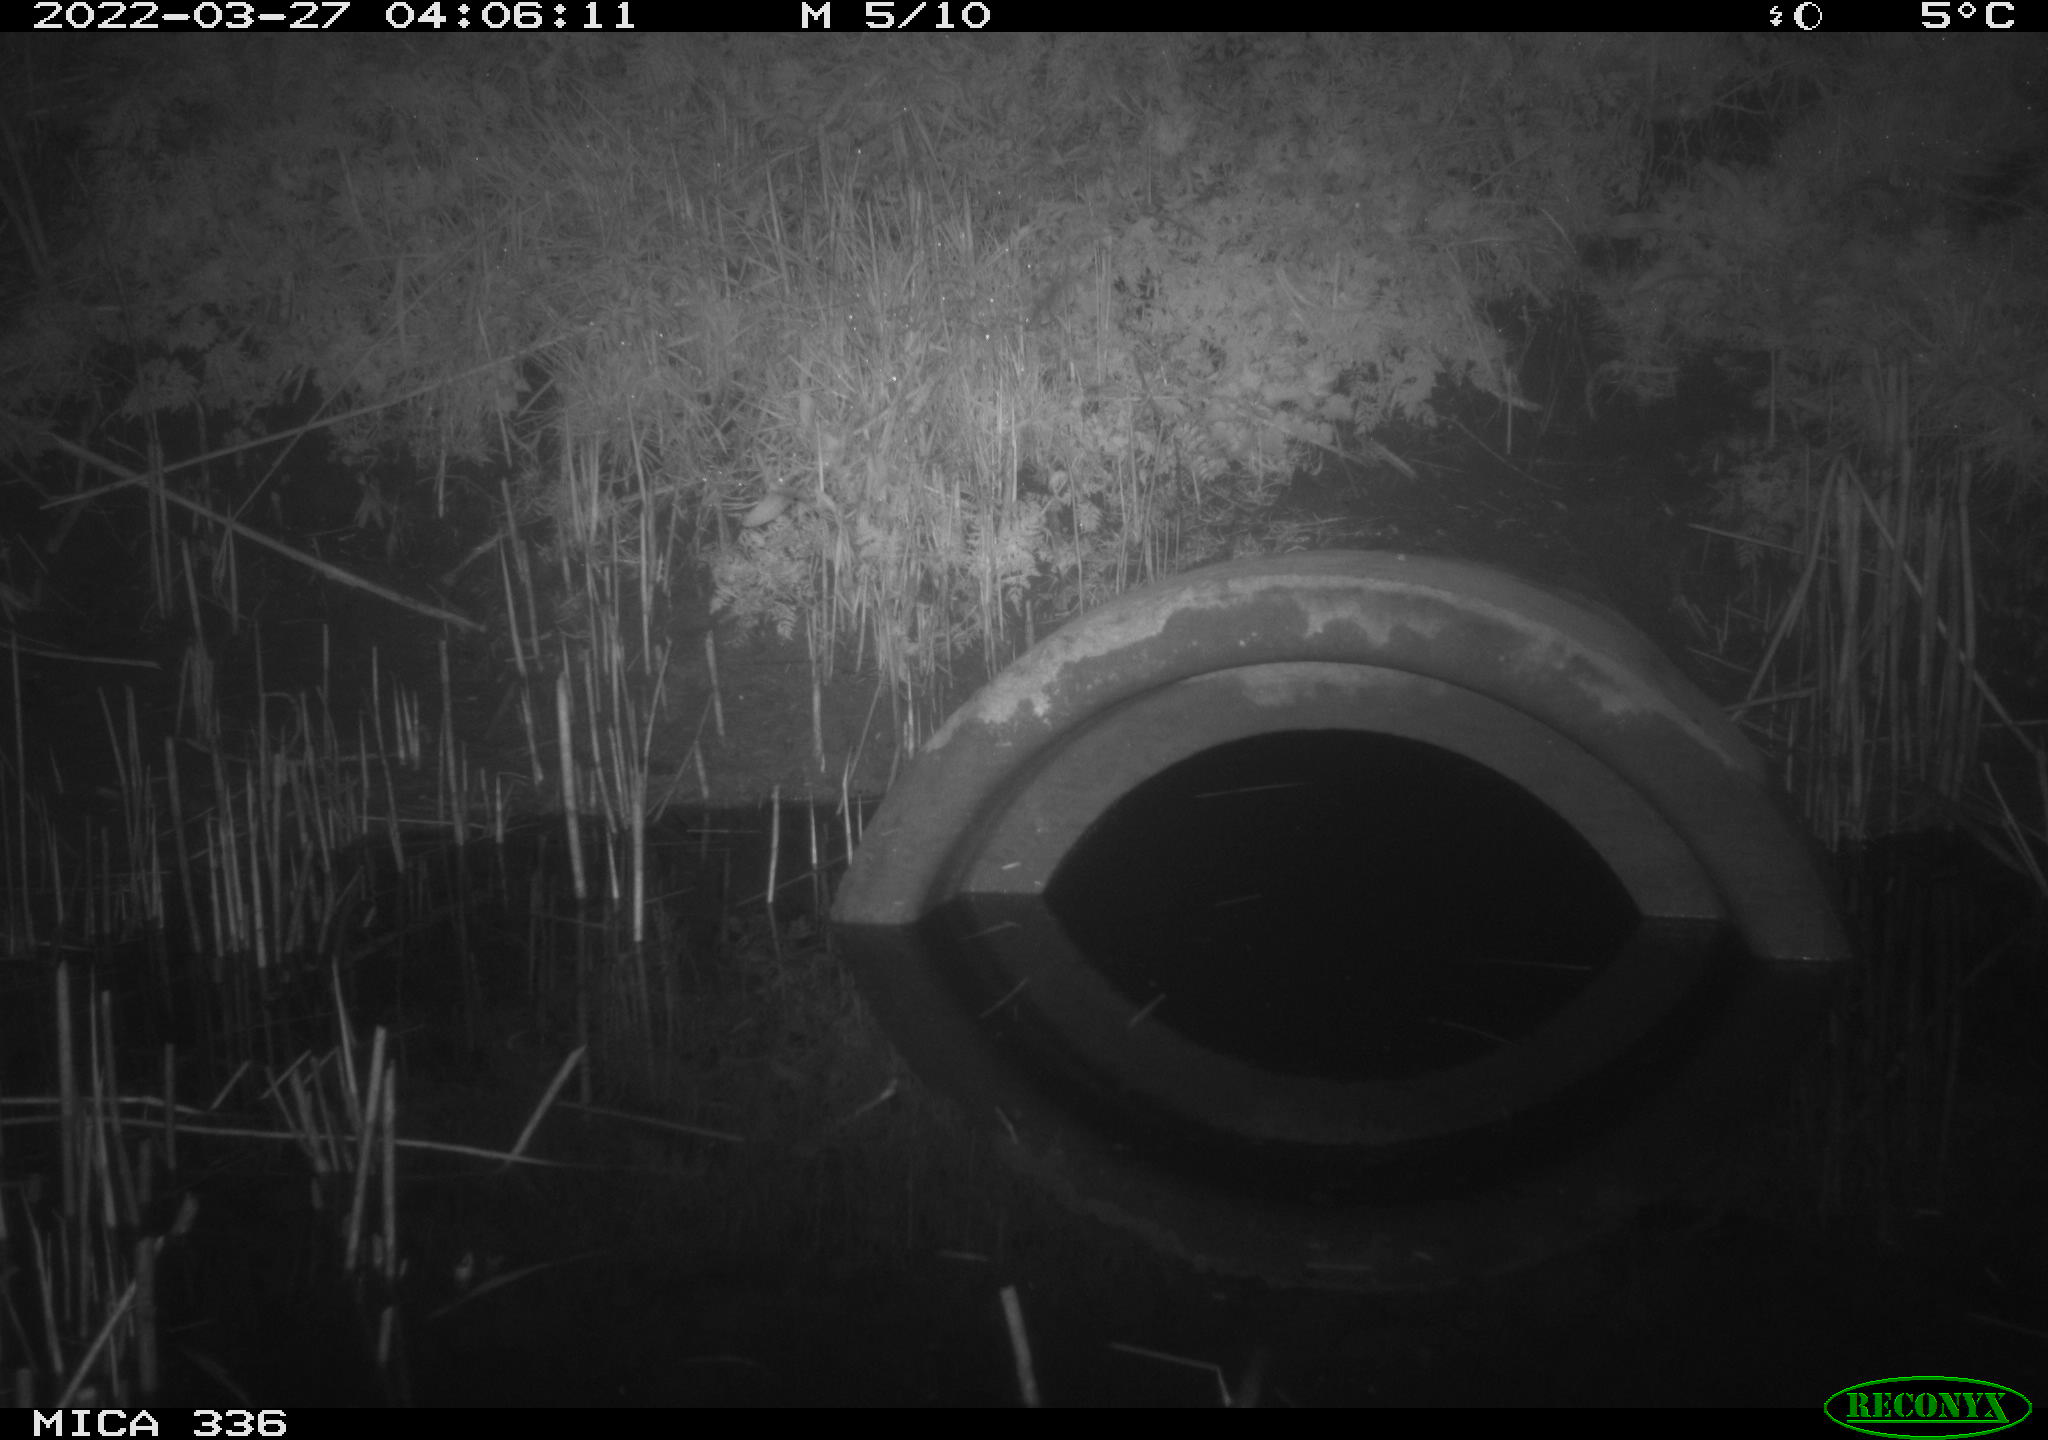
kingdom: Animalia
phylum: Chordata
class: Mammalia
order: Rodentia
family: Muridae
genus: Rattus
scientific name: Rattus norvegicus
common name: Brown rat
